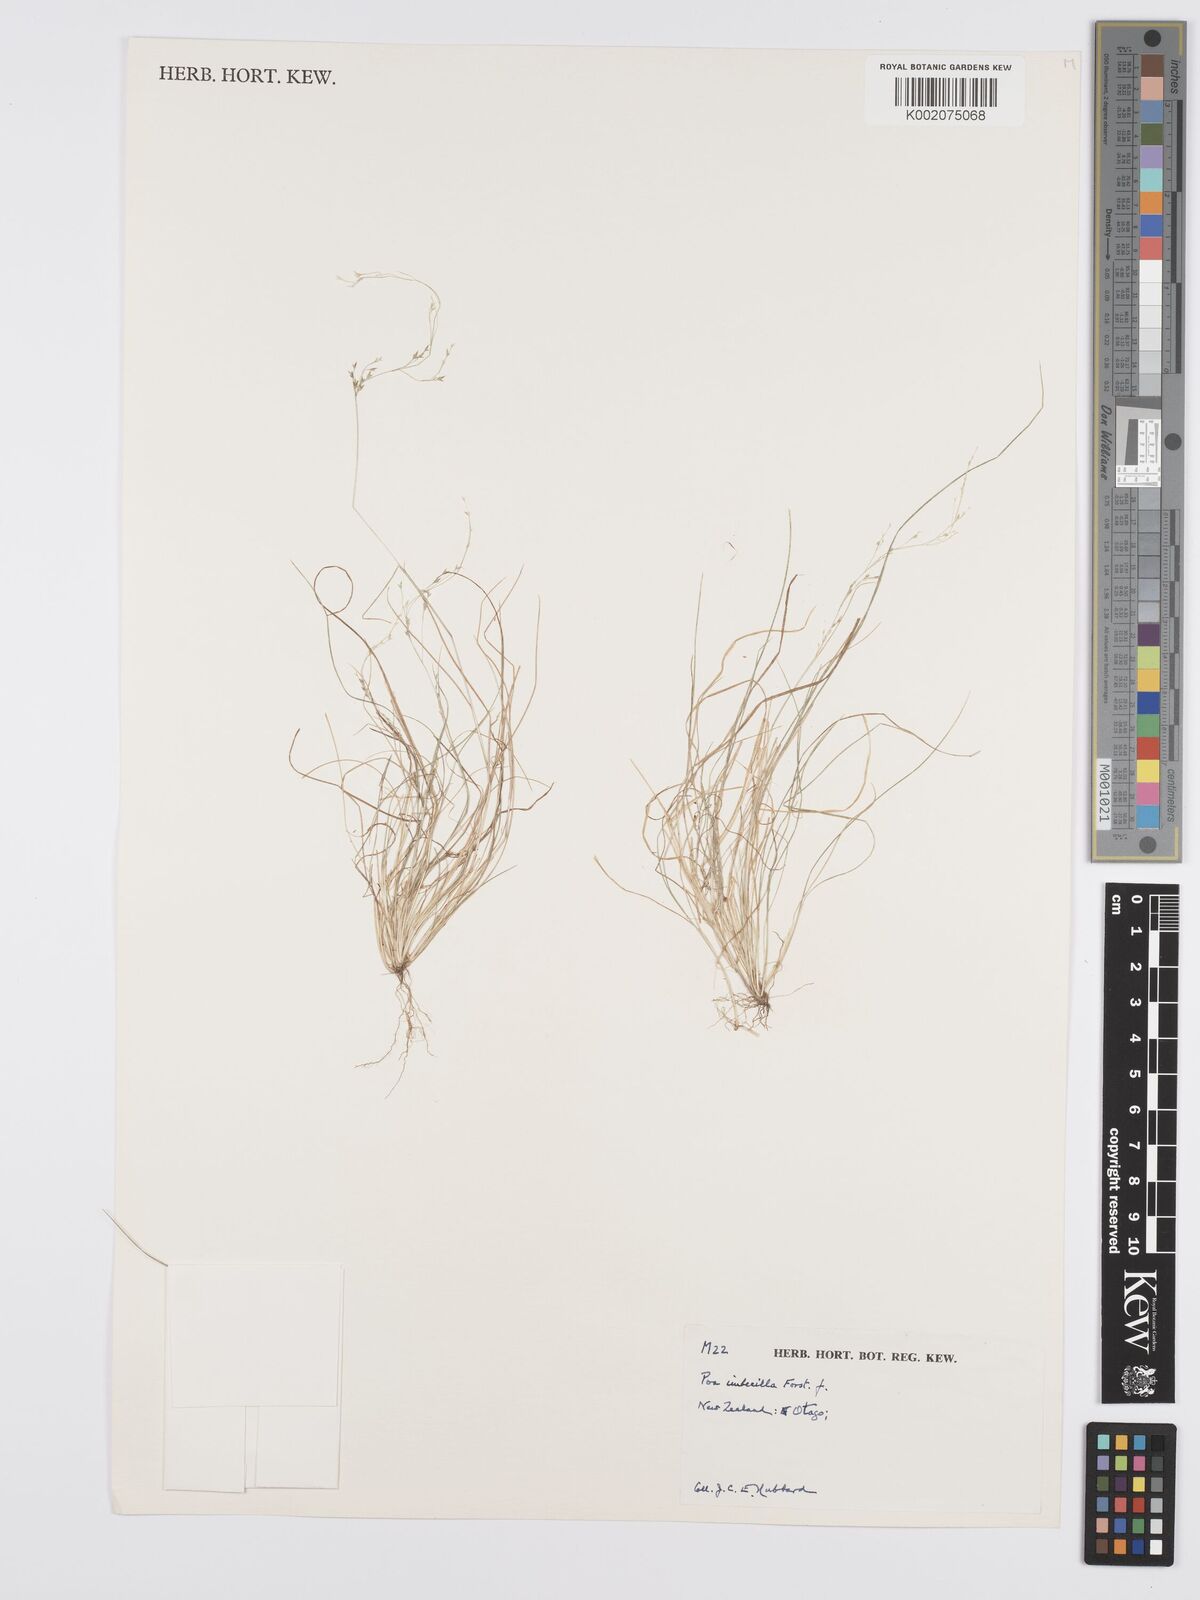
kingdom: Plantae
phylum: Tracheophyta
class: Liliopsida
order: Poales
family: Poaceae
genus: Poa
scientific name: Poa breviglumis
